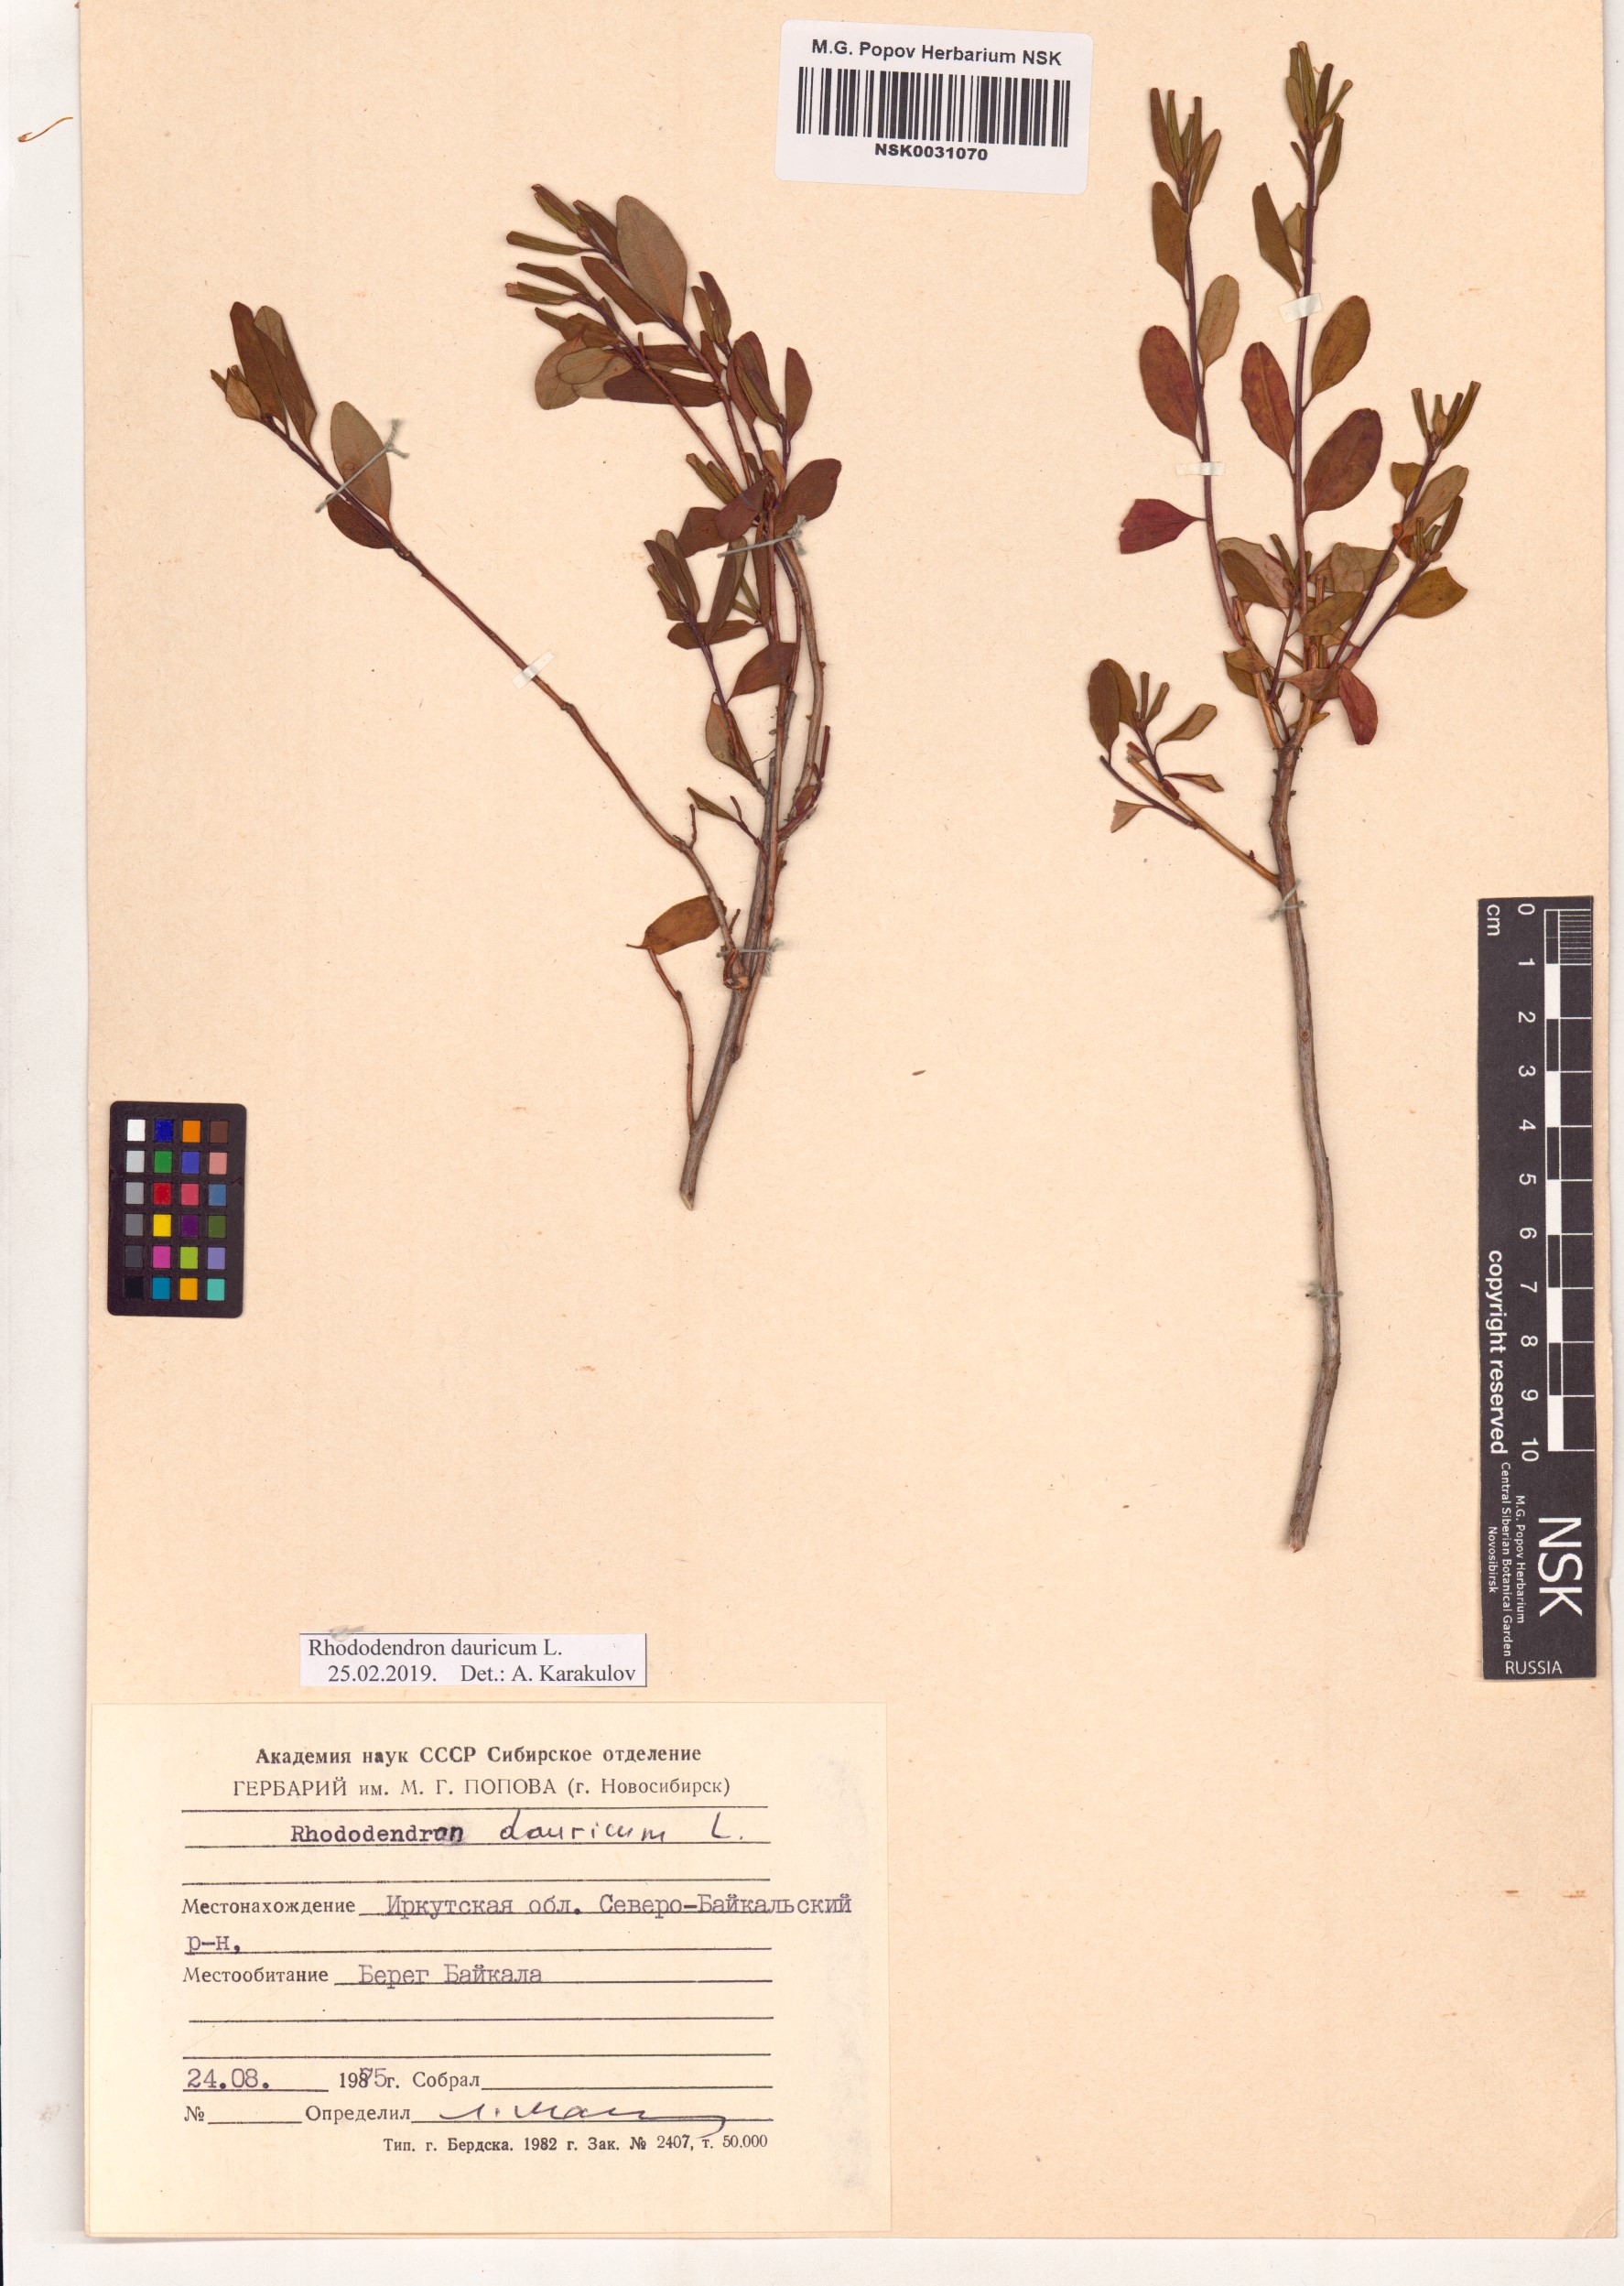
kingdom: Plantae
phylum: Tracheophyta
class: Magnoliopsida
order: Ericales
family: Ericaceae
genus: Rhododendron
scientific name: Rhododendron dauricum
